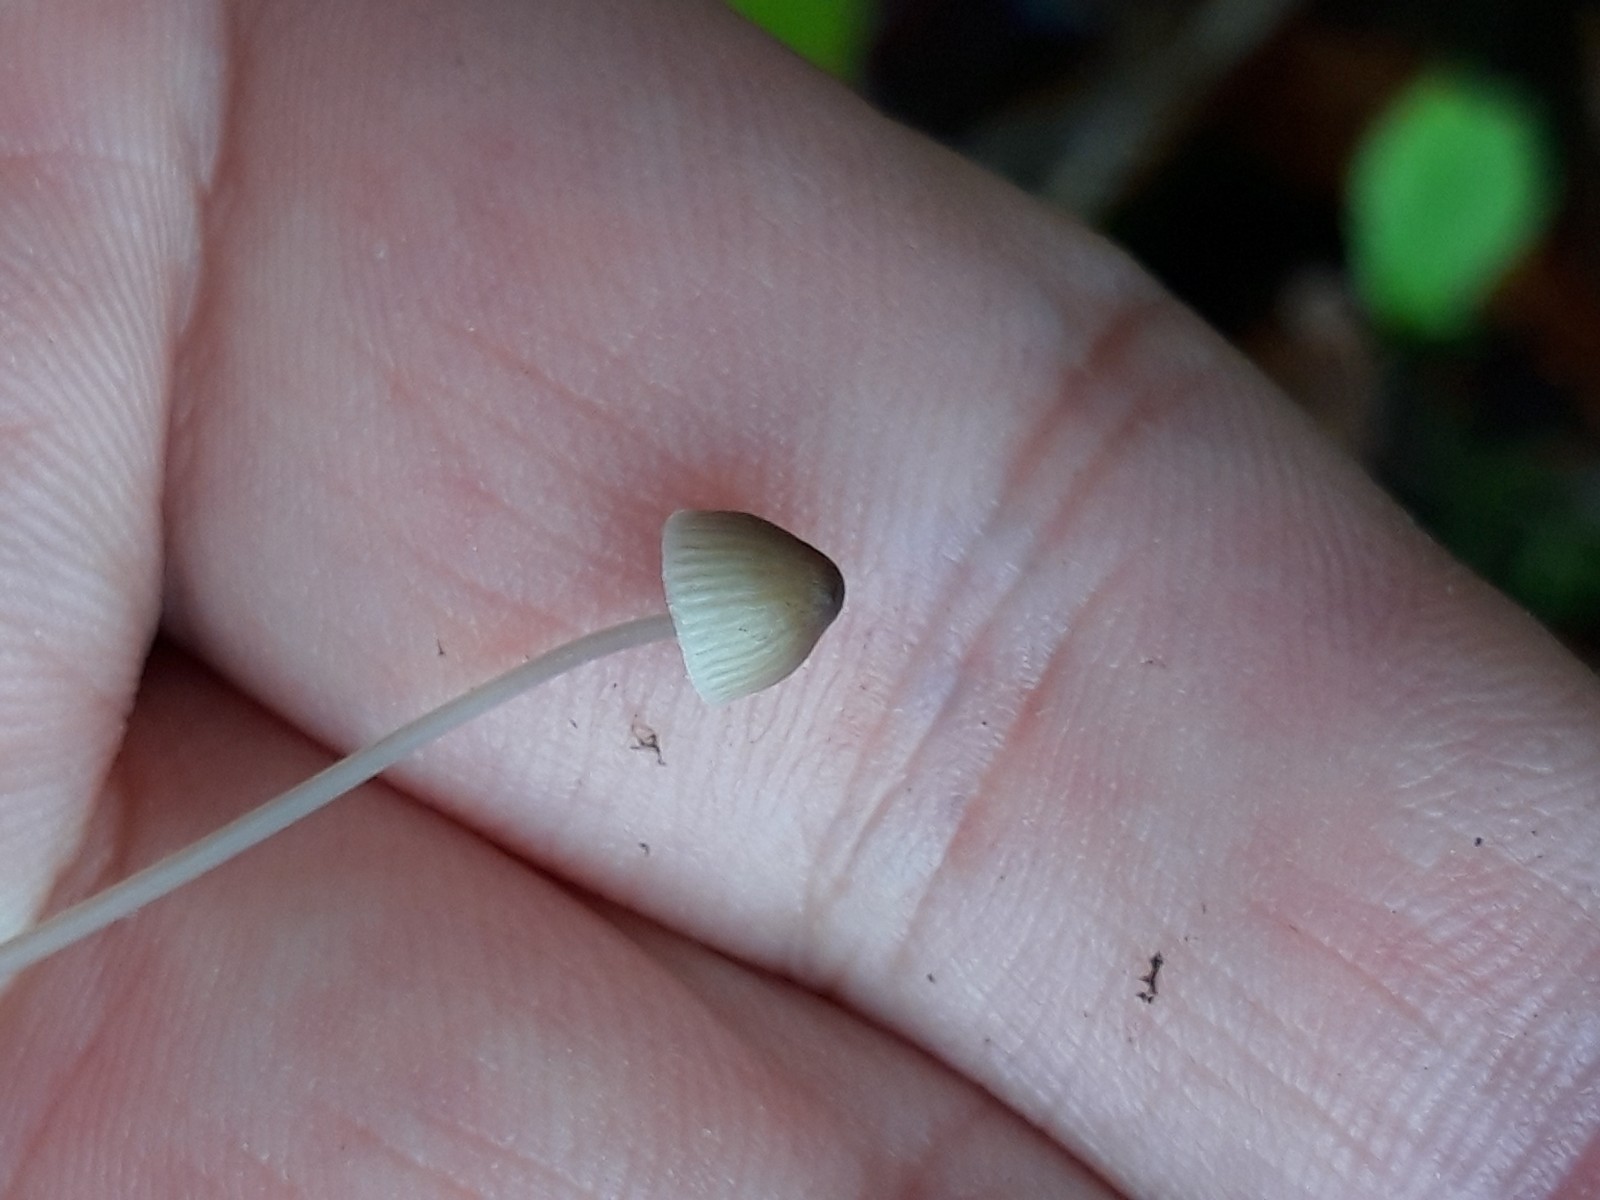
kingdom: Fungi
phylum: Basidiomycota
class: Agaricomycetes
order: Agaricales
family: Mycenaceae
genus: Mycena
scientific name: Mycena
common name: huesvamp
